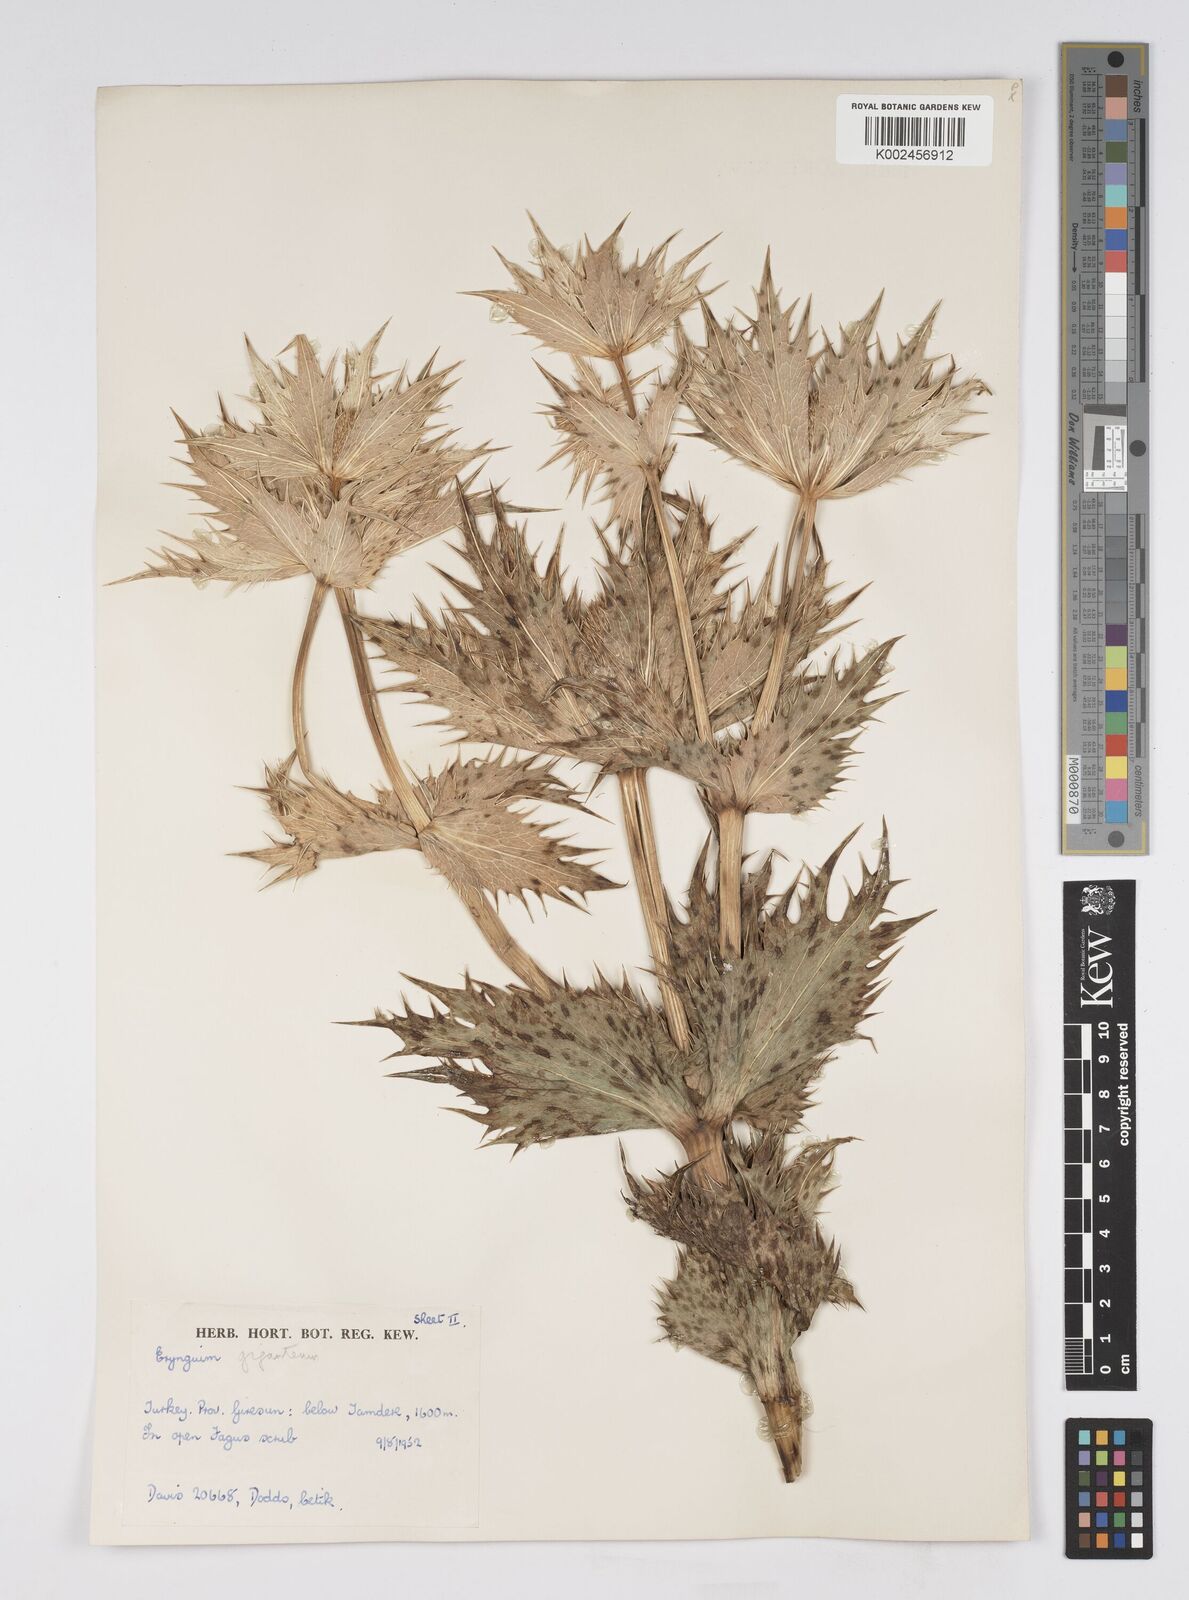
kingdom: Plantae
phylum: Tracheophyta
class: Magnoliopsida
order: Apiales
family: Apiaceae
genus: Eryngium
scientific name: Eryngium giganteum
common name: Tall eryngo
